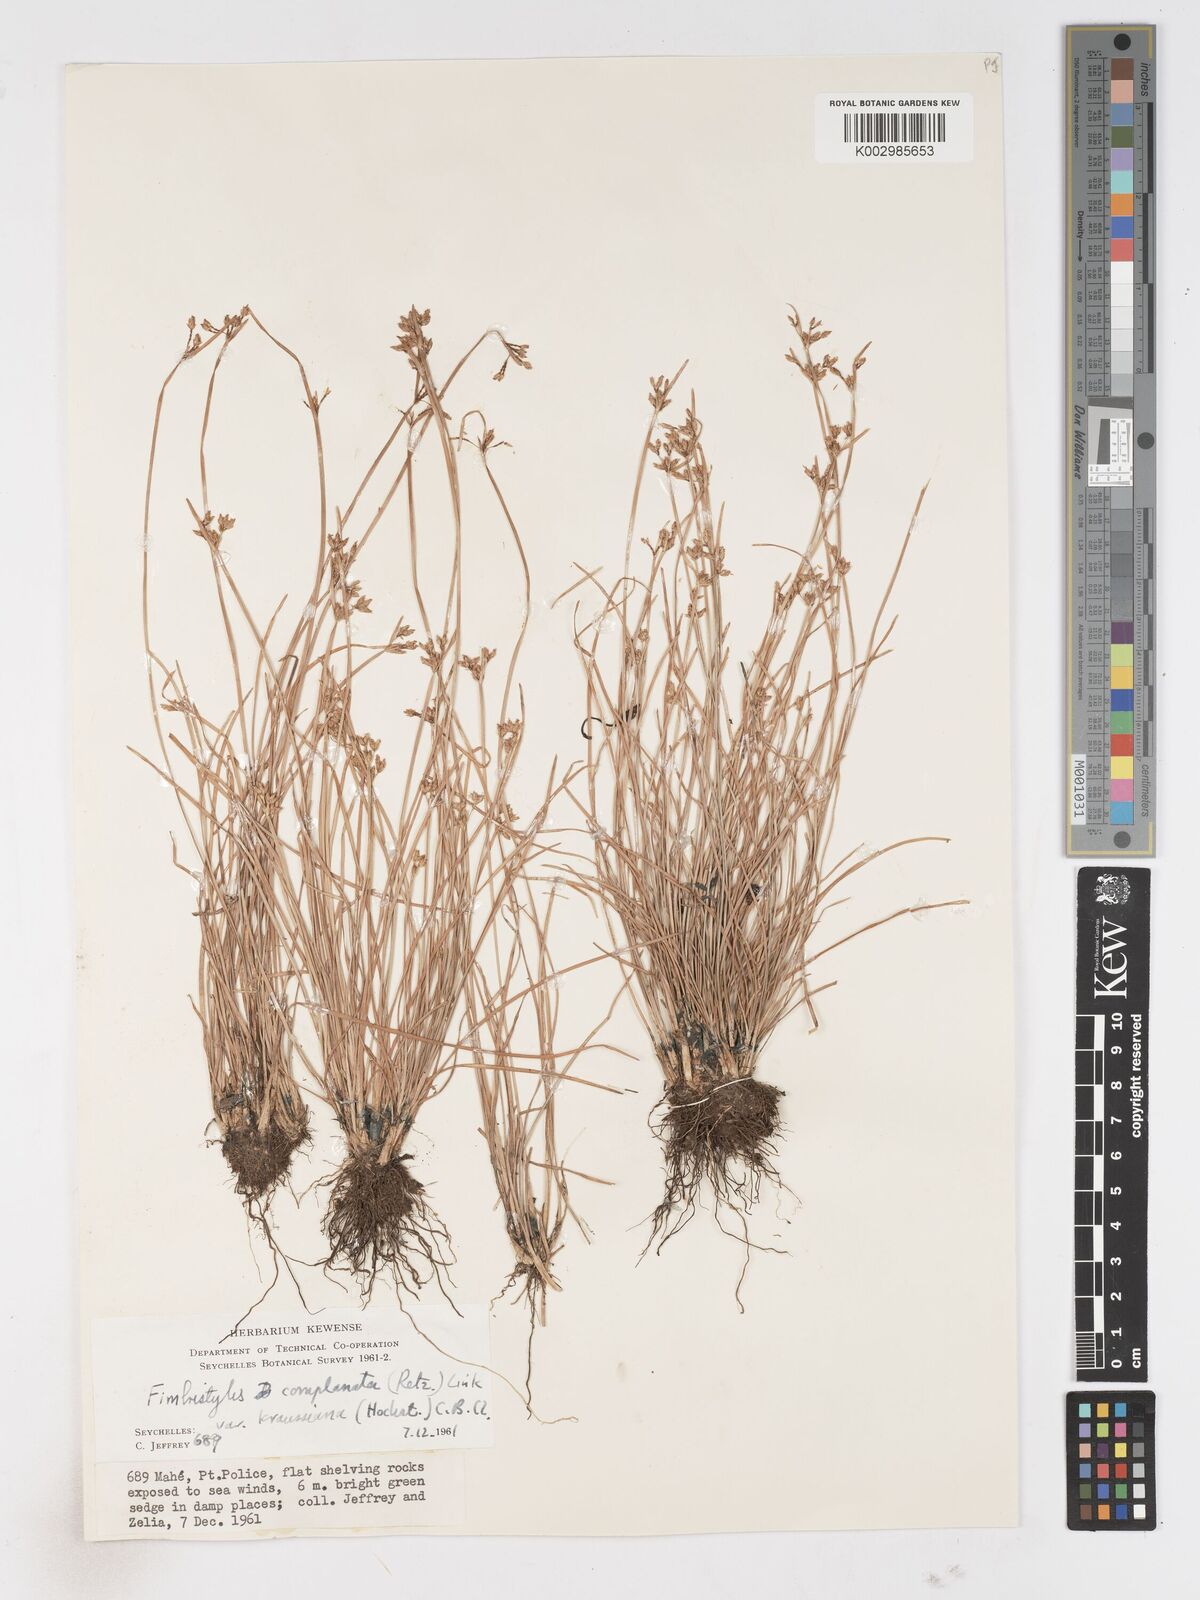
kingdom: Plantae
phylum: Tracheophyta
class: Liliopsida
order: Poales
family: Cyperaceae
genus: Fimbristylis
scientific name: Fimbristylis complanata
